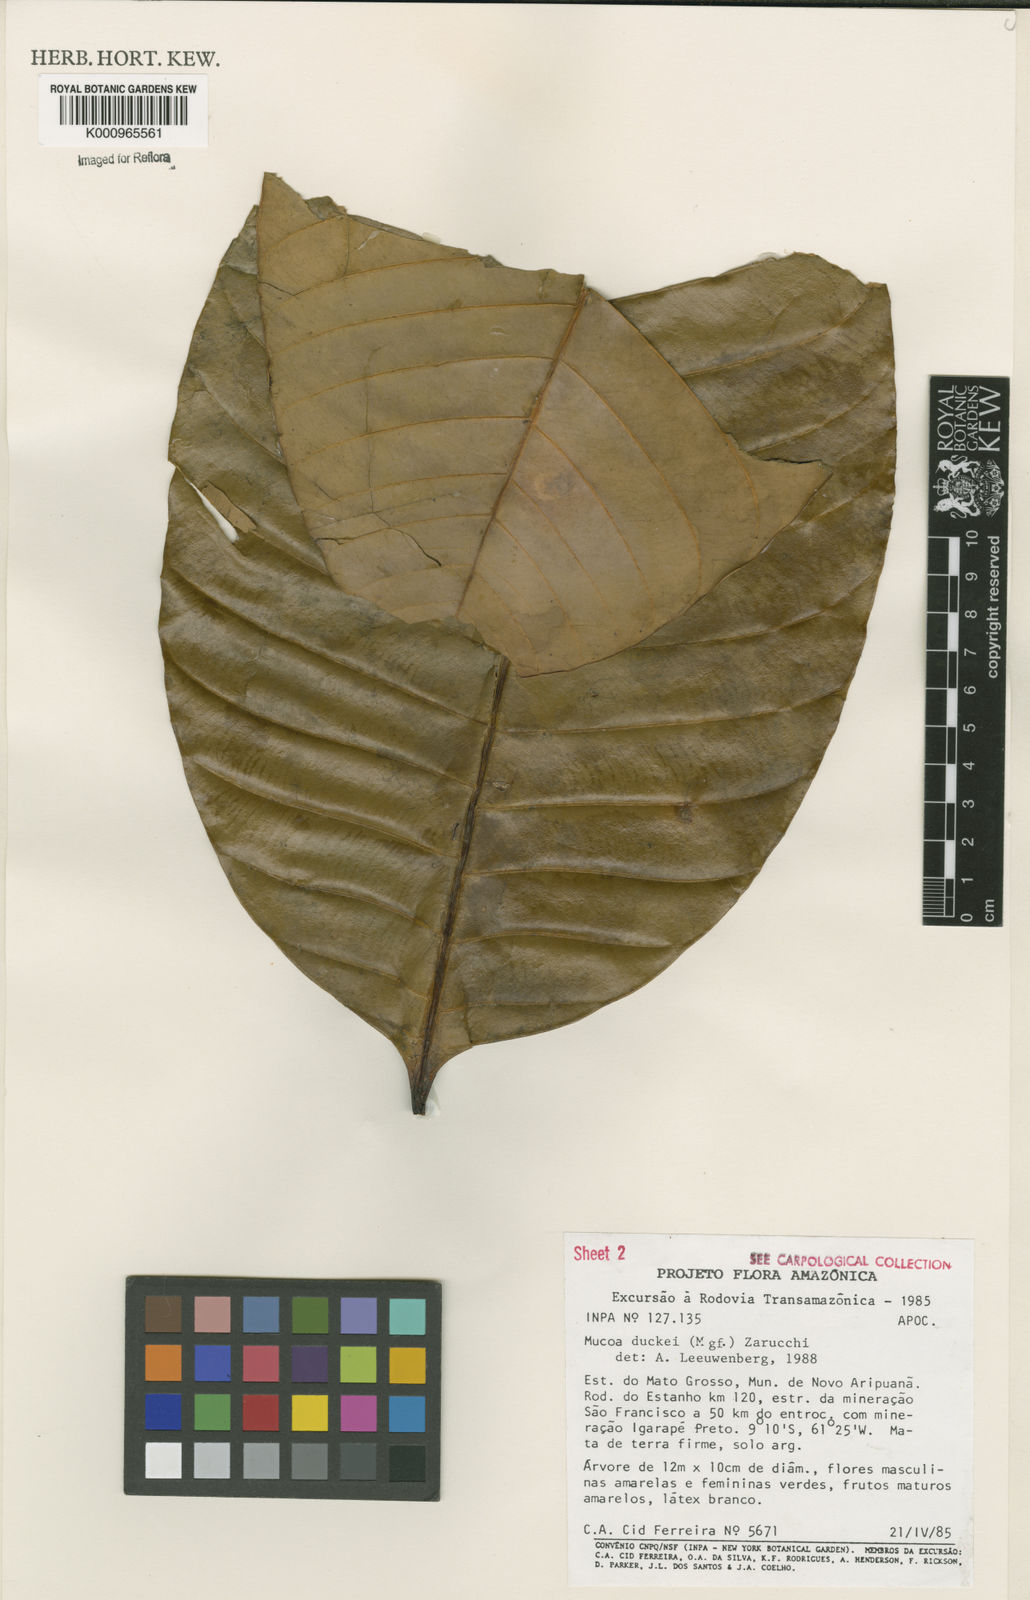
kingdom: Plantae
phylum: Tracheophyta
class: Magnoliopsida
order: Gentianales
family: Apocynaceae
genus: Mucoa
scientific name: Mucoa duckei
